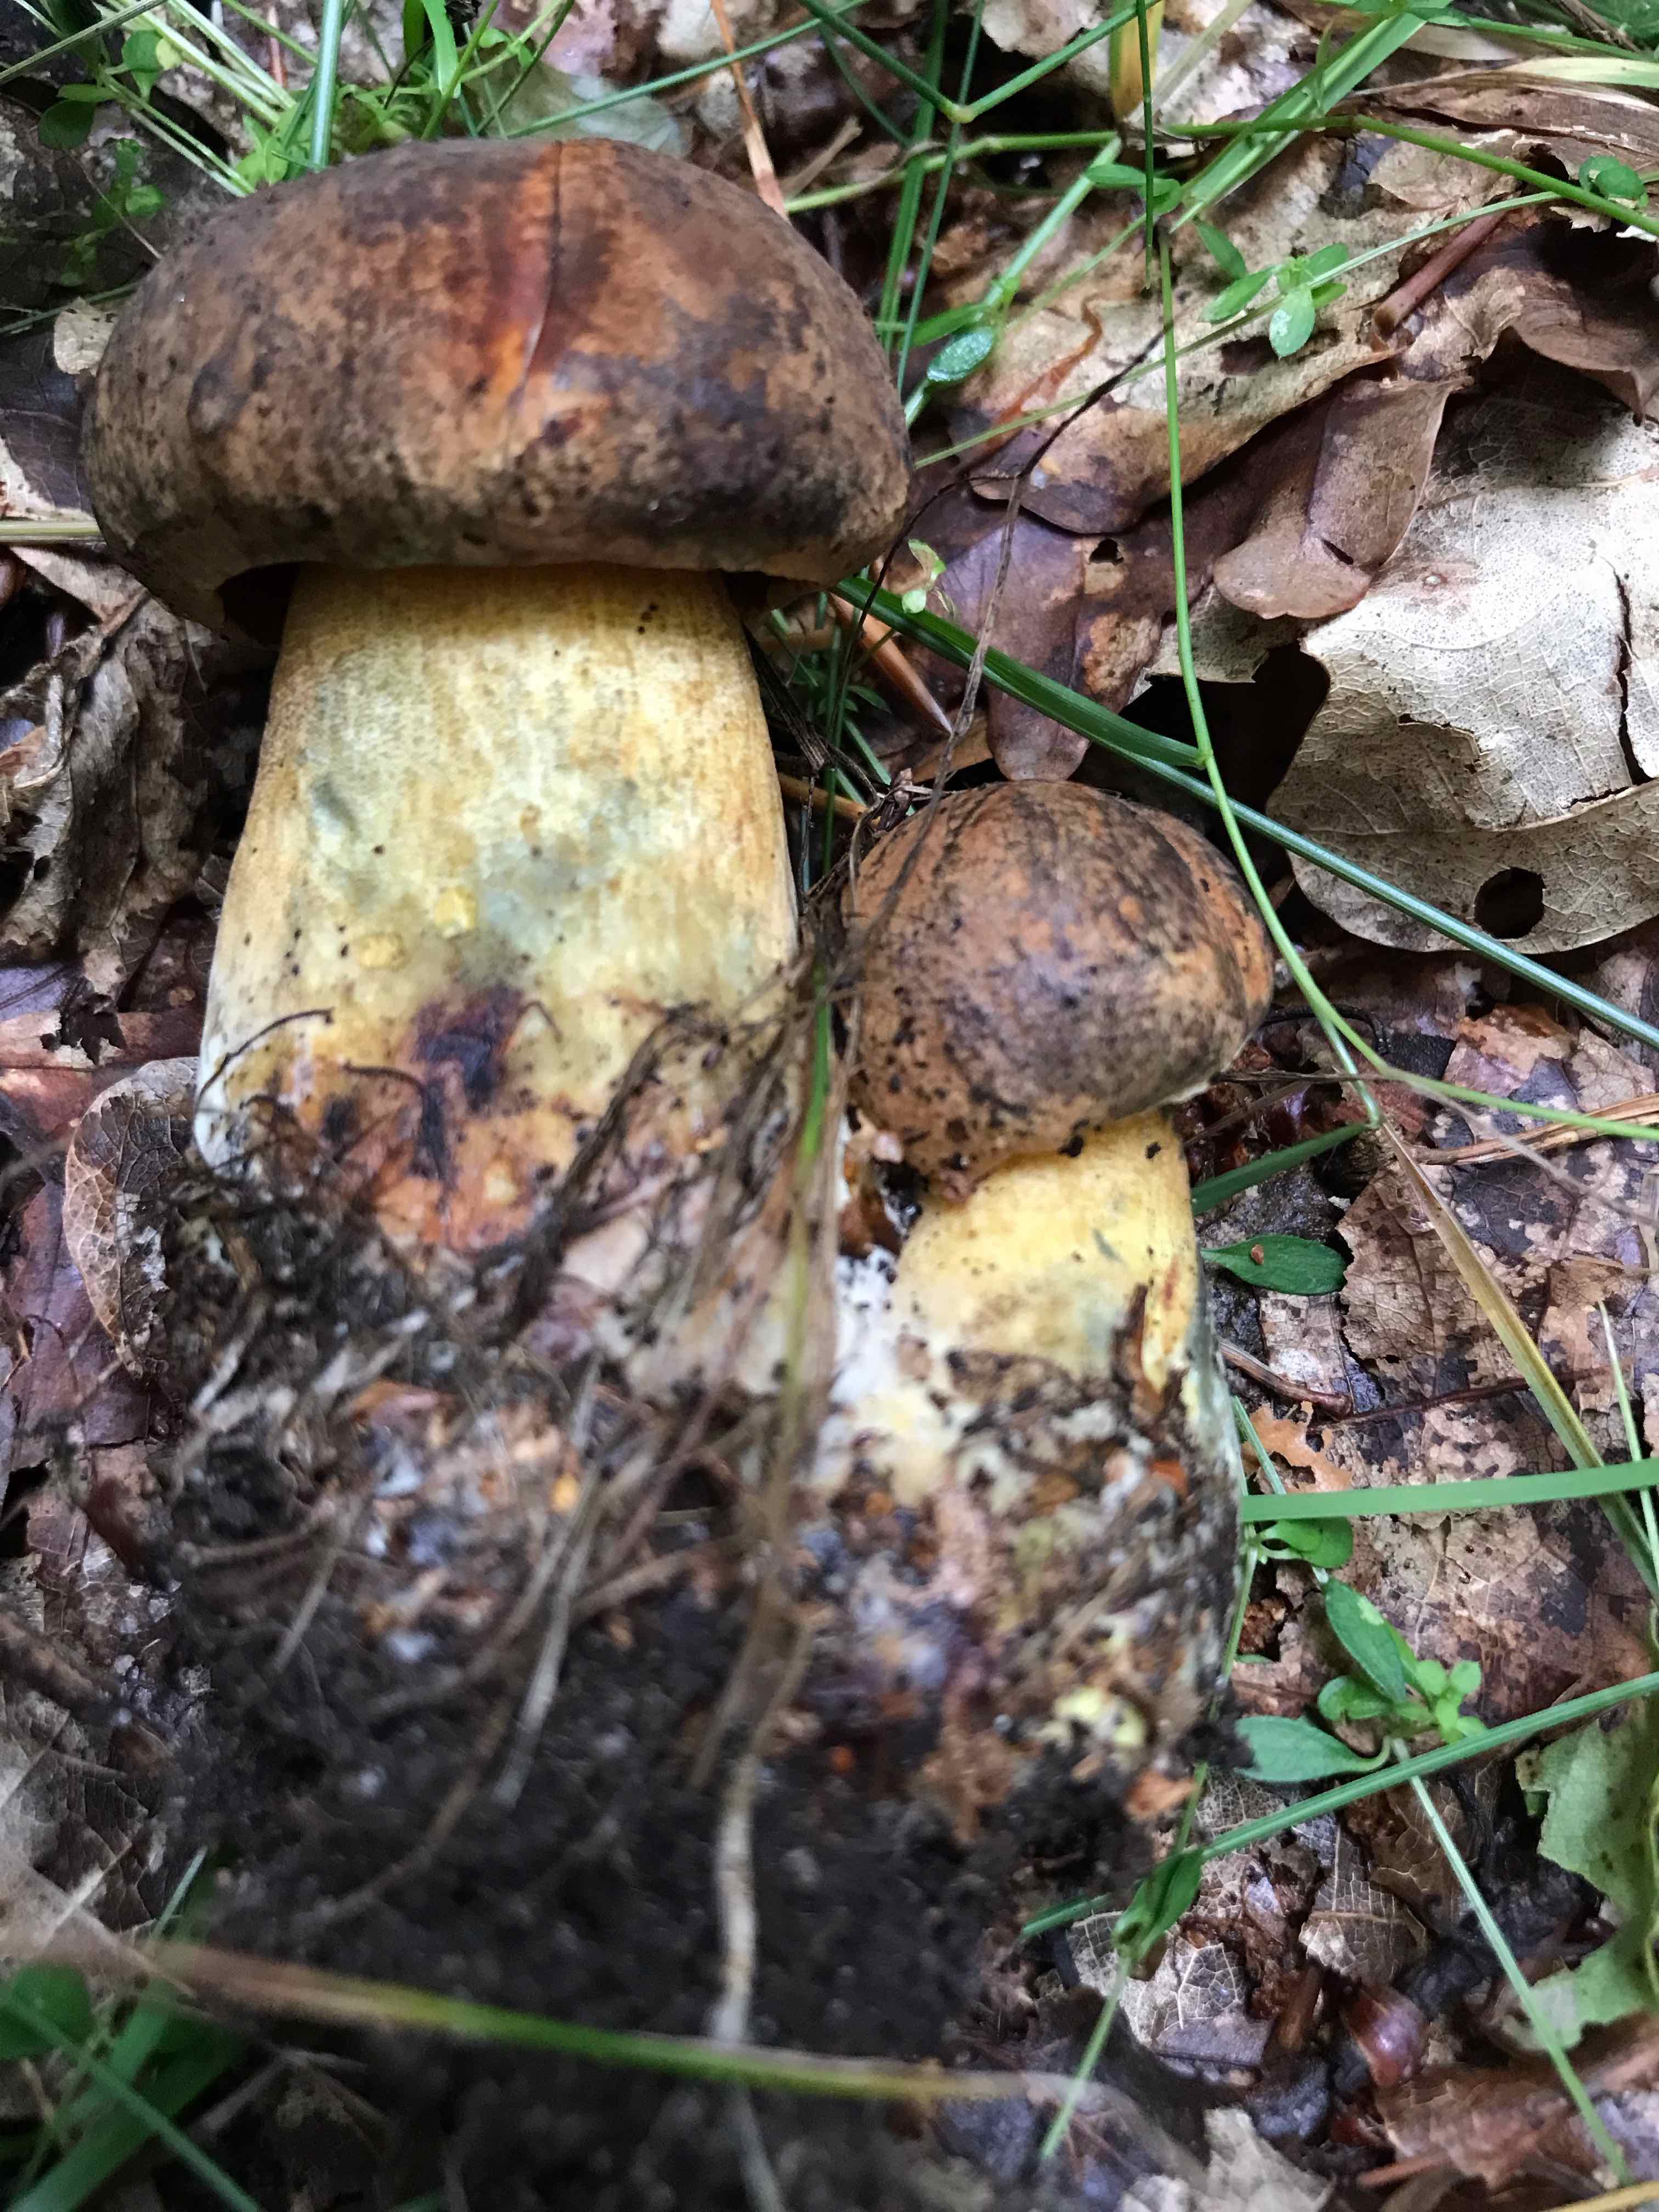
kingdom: Fungi
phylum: Basidiomycota
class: Agaricomycetes
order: Boletales
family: Boletaceae
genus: Neoboletus
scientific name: Neoboletus
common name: indigorørhat
